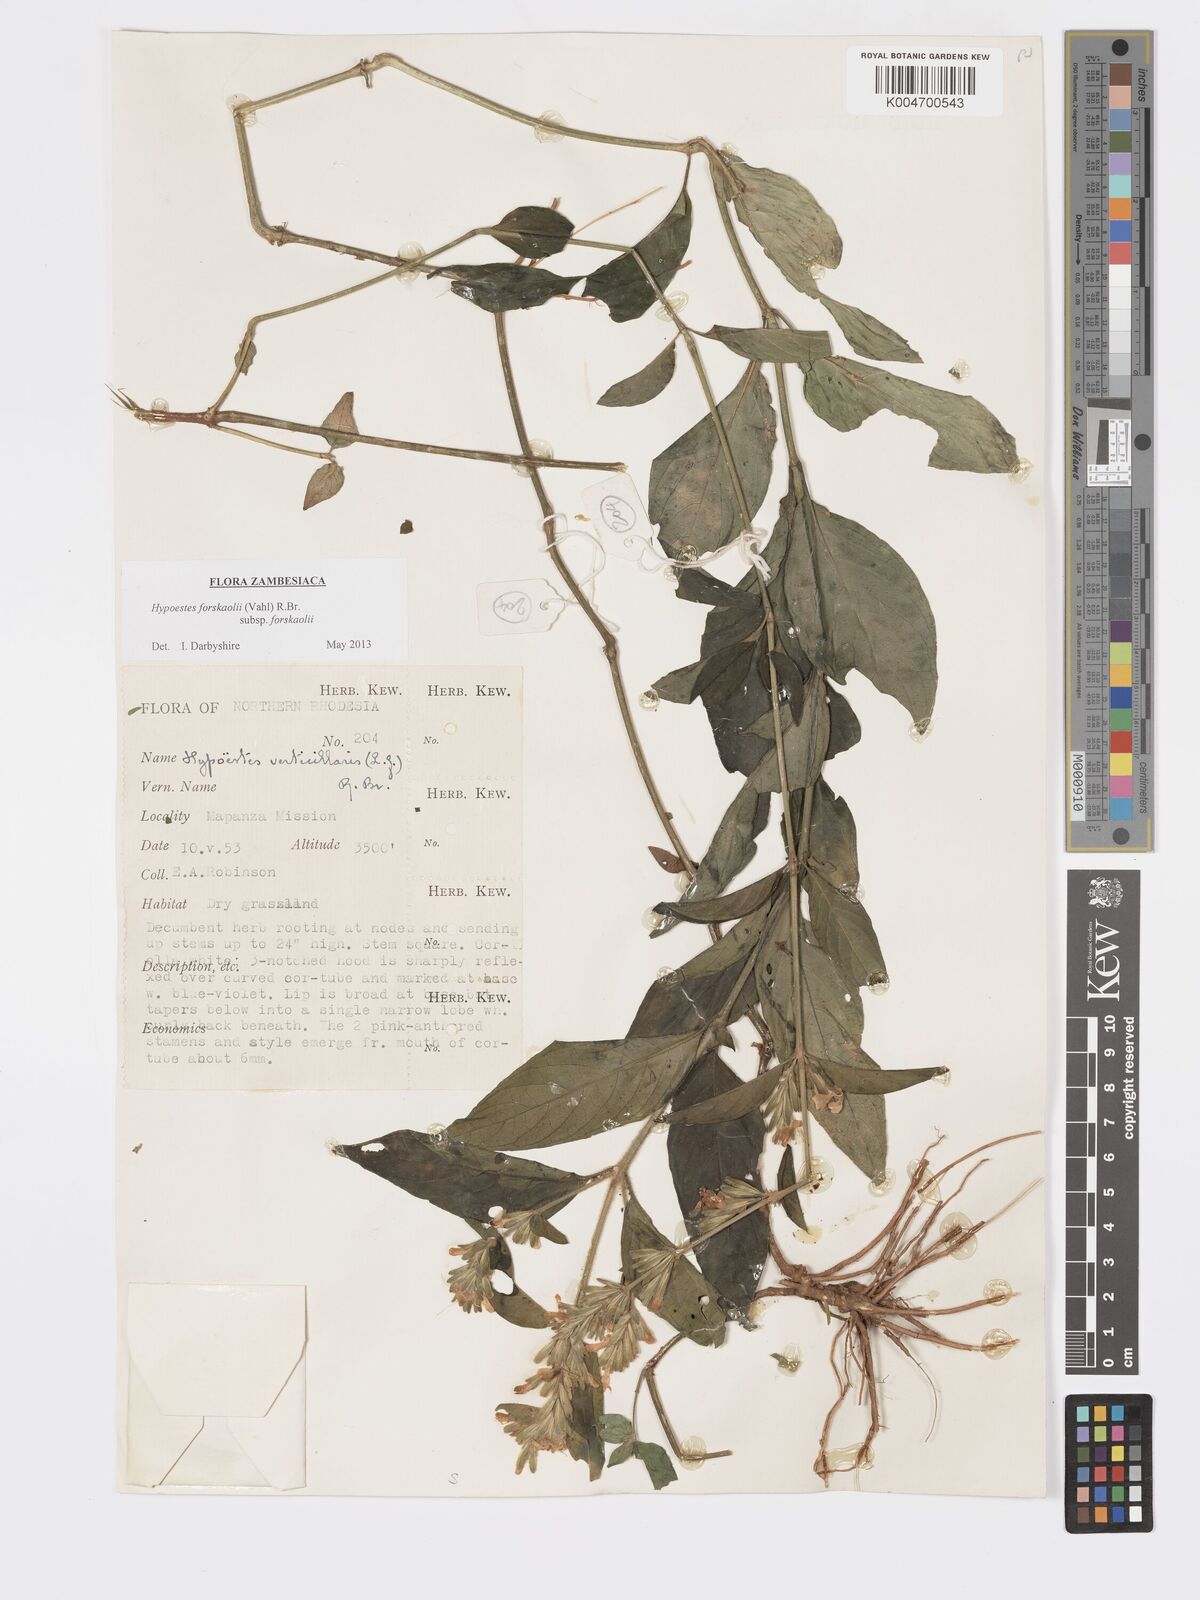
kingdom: Plantae
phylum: Tracheophyta
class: Magnoliopsida
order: Lamiales
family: Acanthaceae
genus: Hypoestes
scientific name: Hypoestes forskaolii
